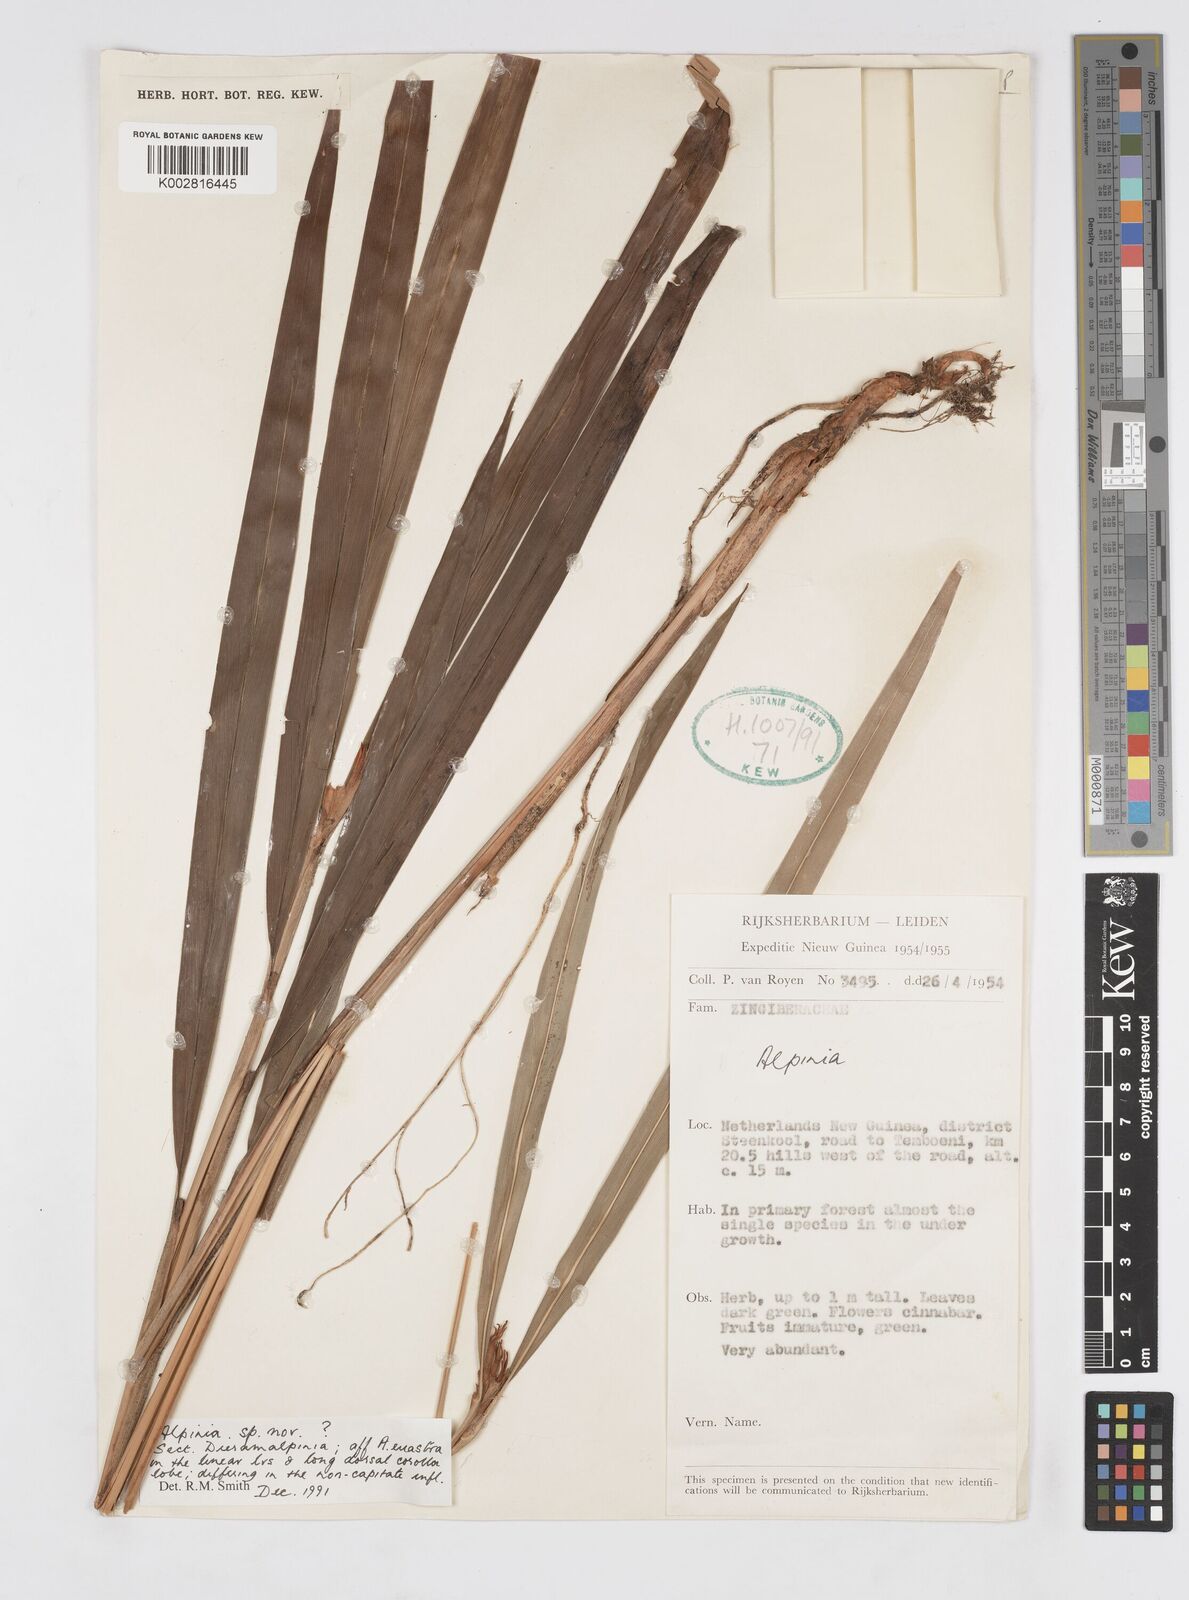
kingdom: Plantae
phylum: Tracheophyta
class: Liliopsida
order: Zingiberales
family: Zingiberaceae
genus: Alpinia
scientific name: Alpinia
